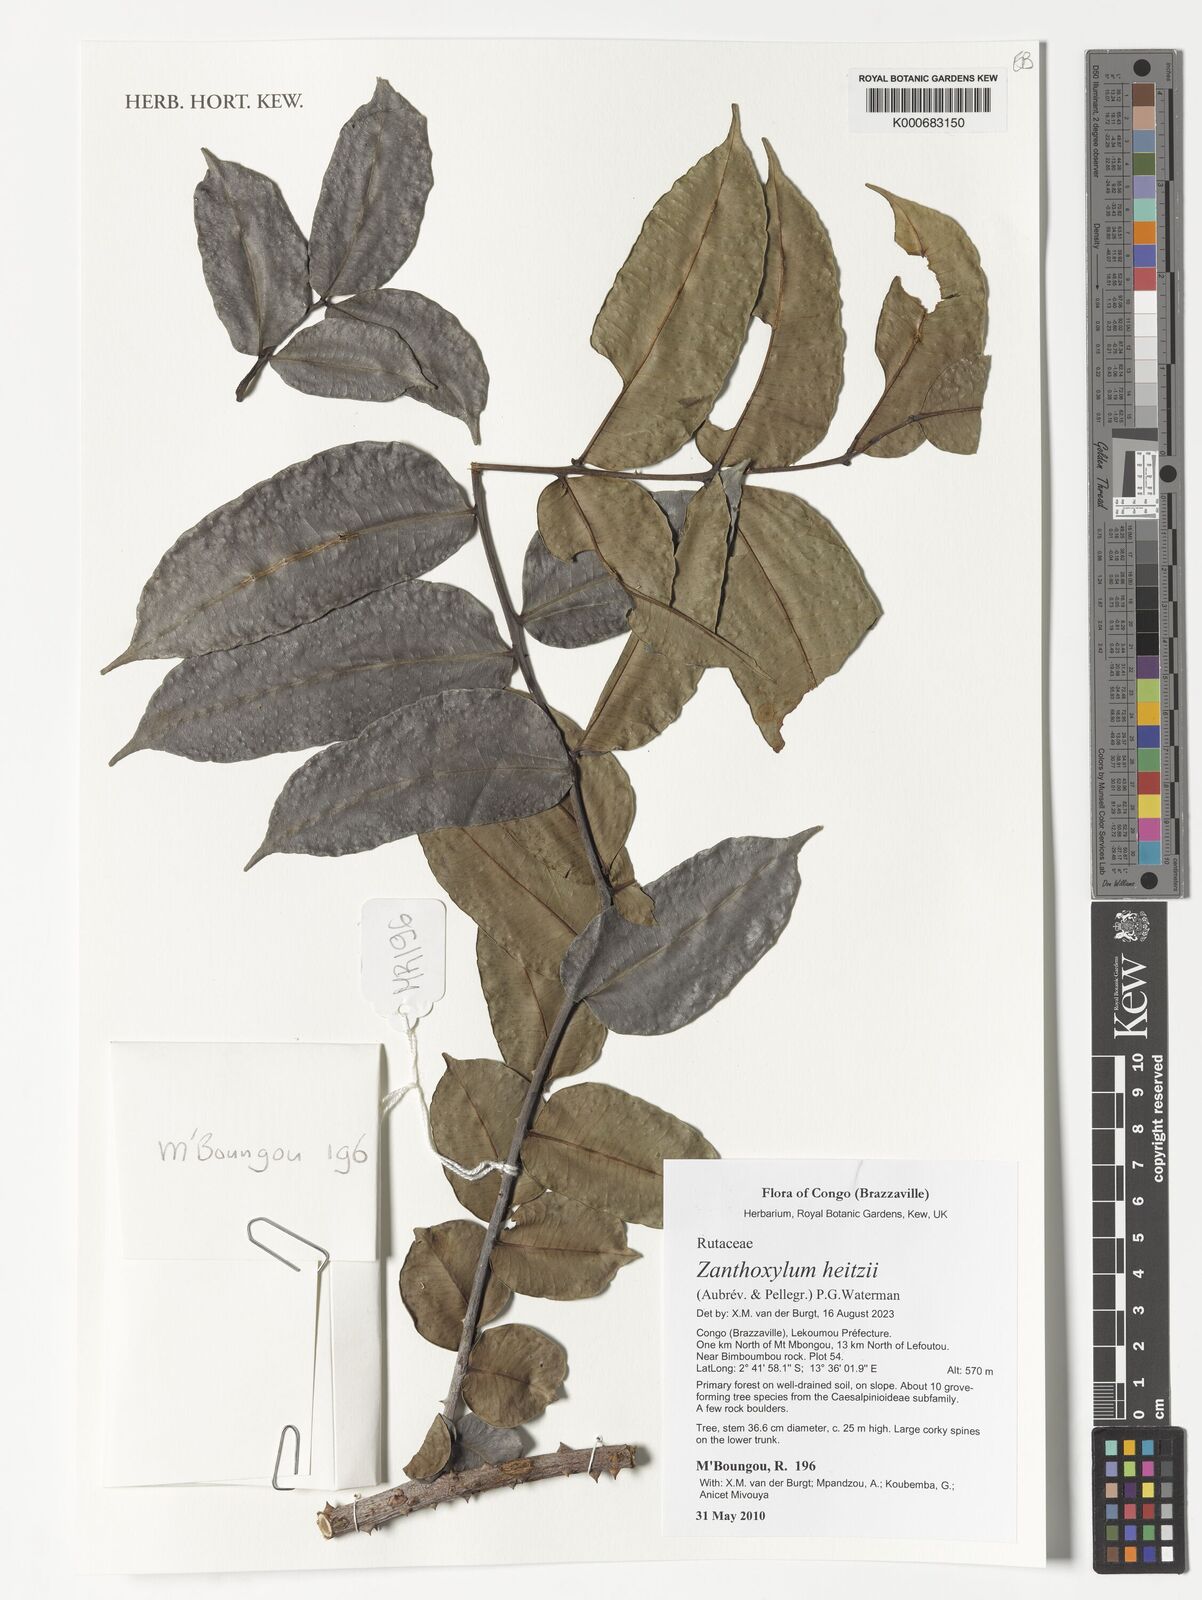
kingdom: Plantae
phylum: Tracheophyta
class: Magnoliopsida
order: Sapindales
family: Rutaceae
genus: Zanthoxylum
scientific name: Zanthoxylum heitzii
